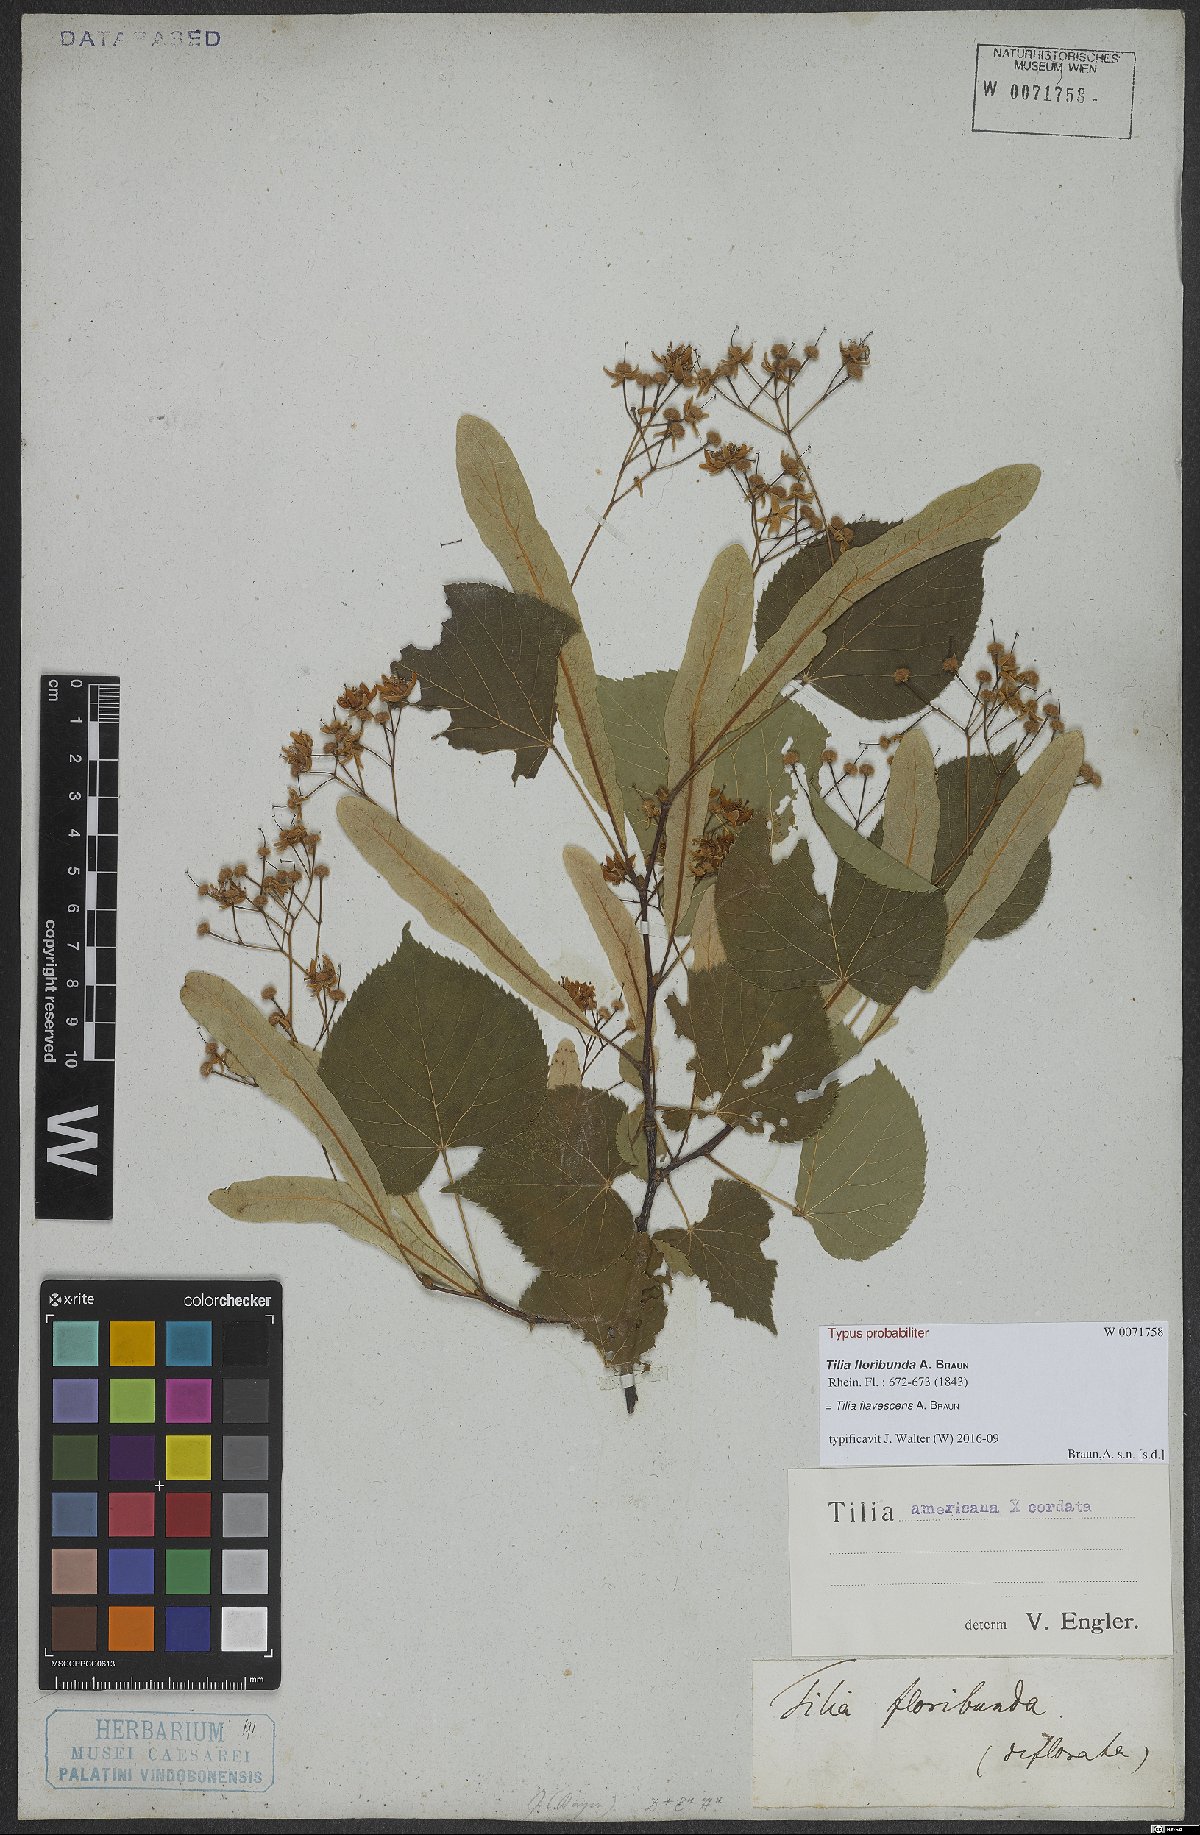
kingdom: Plantae
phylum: Tracheophyta
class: Magnoliopsida
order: Malvales
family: Tiliaceae
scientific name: Tiliaceae
